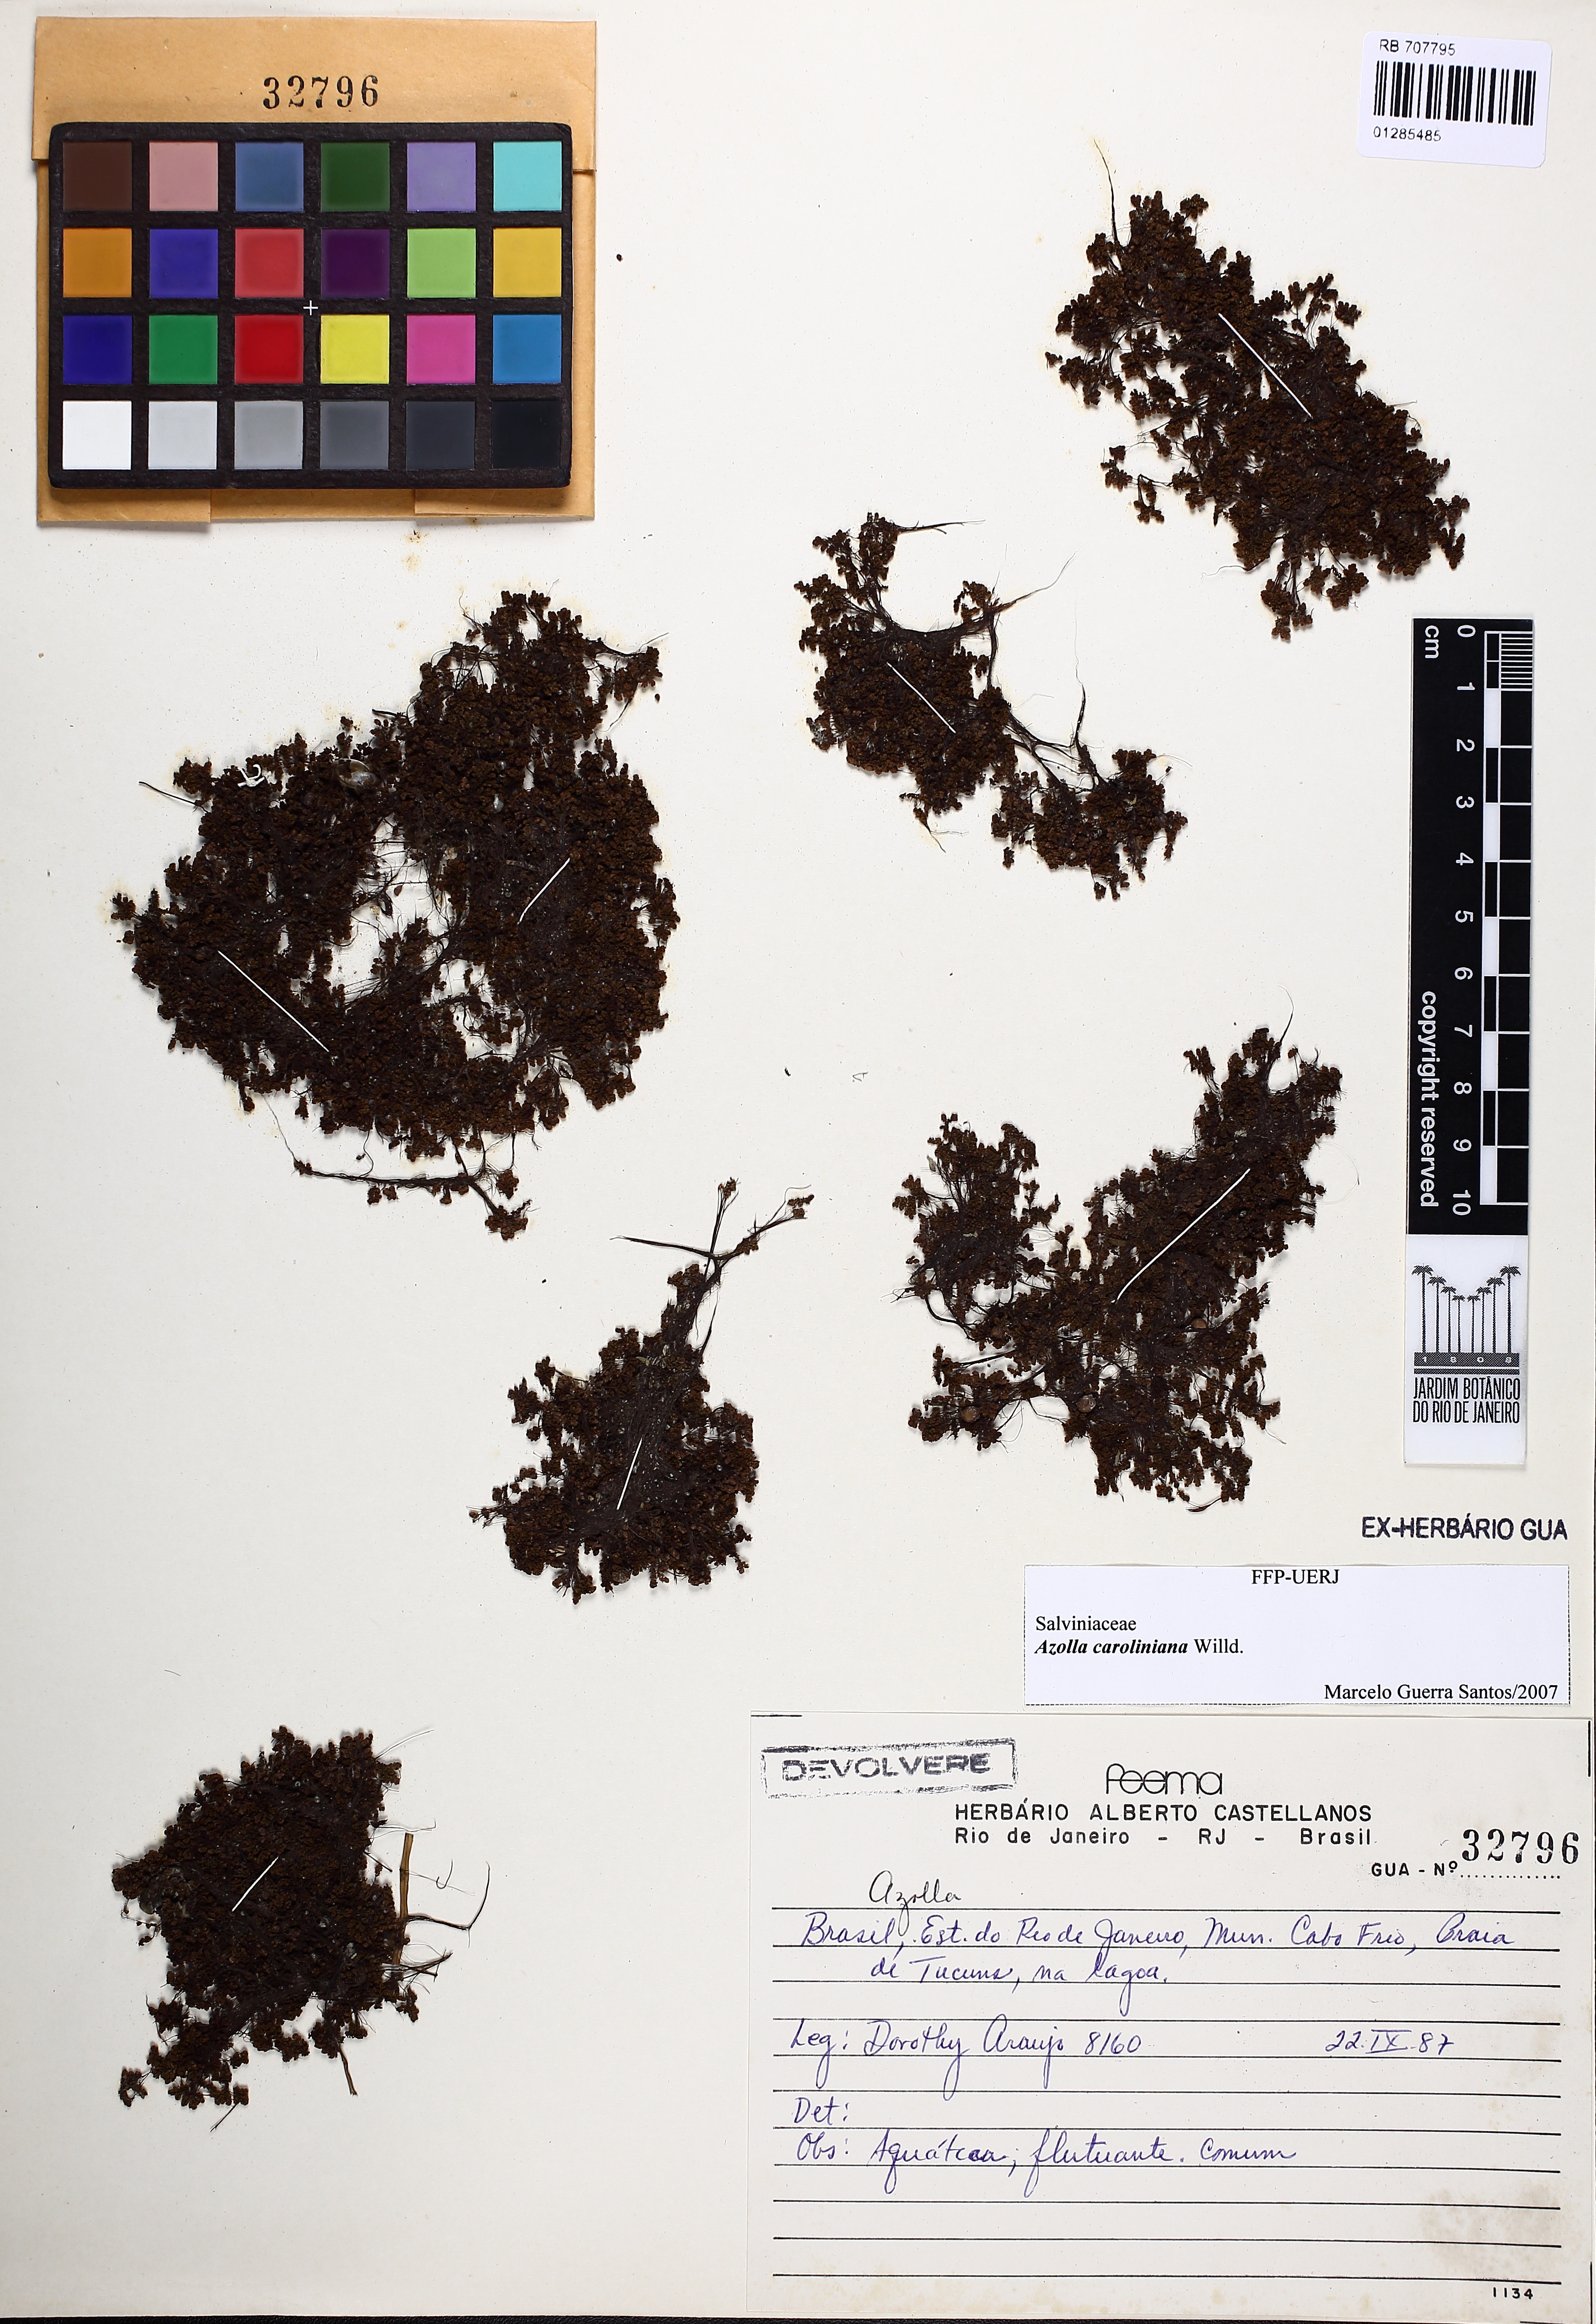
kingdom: Plantae
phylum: Tracheophyta
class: Polypodiopsida
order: Salviniales
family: Salviniaceae
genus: Azolla
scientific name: Azolla caroliniana
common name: Carolina mosquitofern
